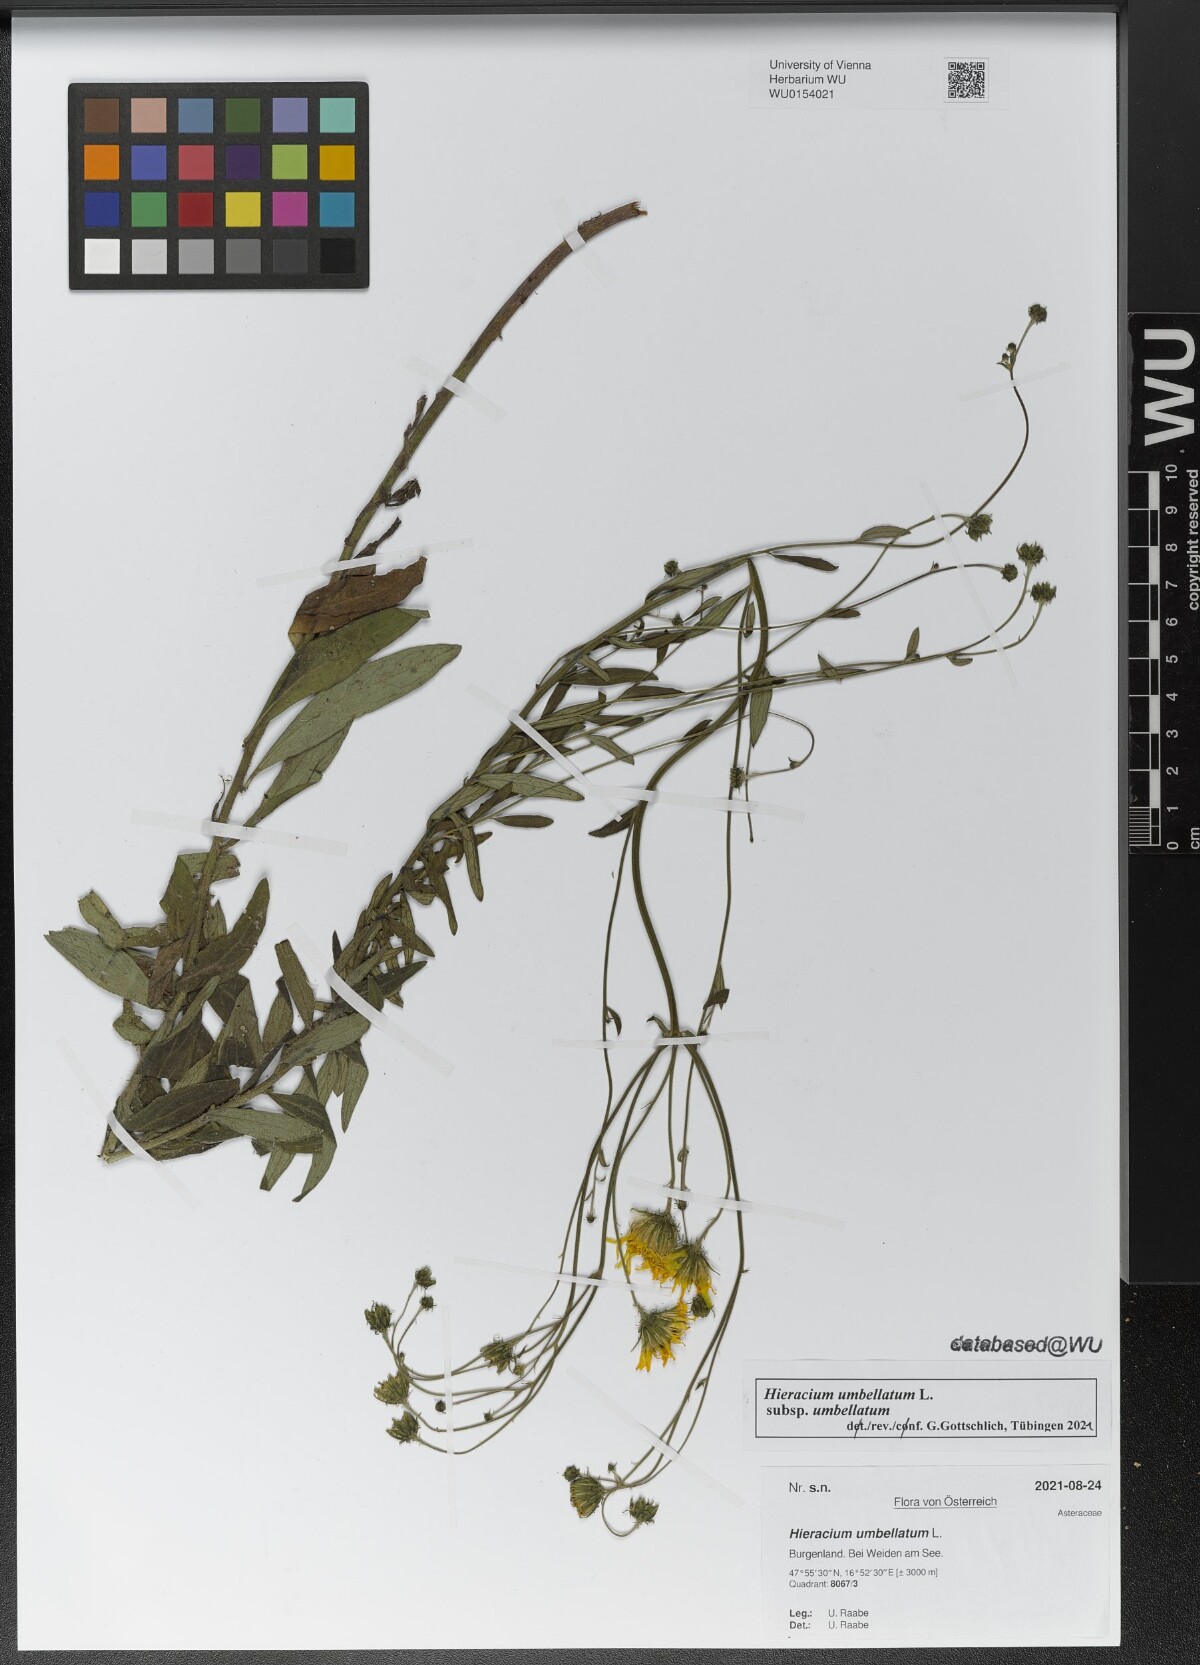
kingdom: Plantae
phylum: Tracheophyta
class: Magnoliopsida
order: Asterales
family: Asteraceae
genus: Hieracium
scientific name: Hieracium umbellatum
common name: Northern hawkweed
